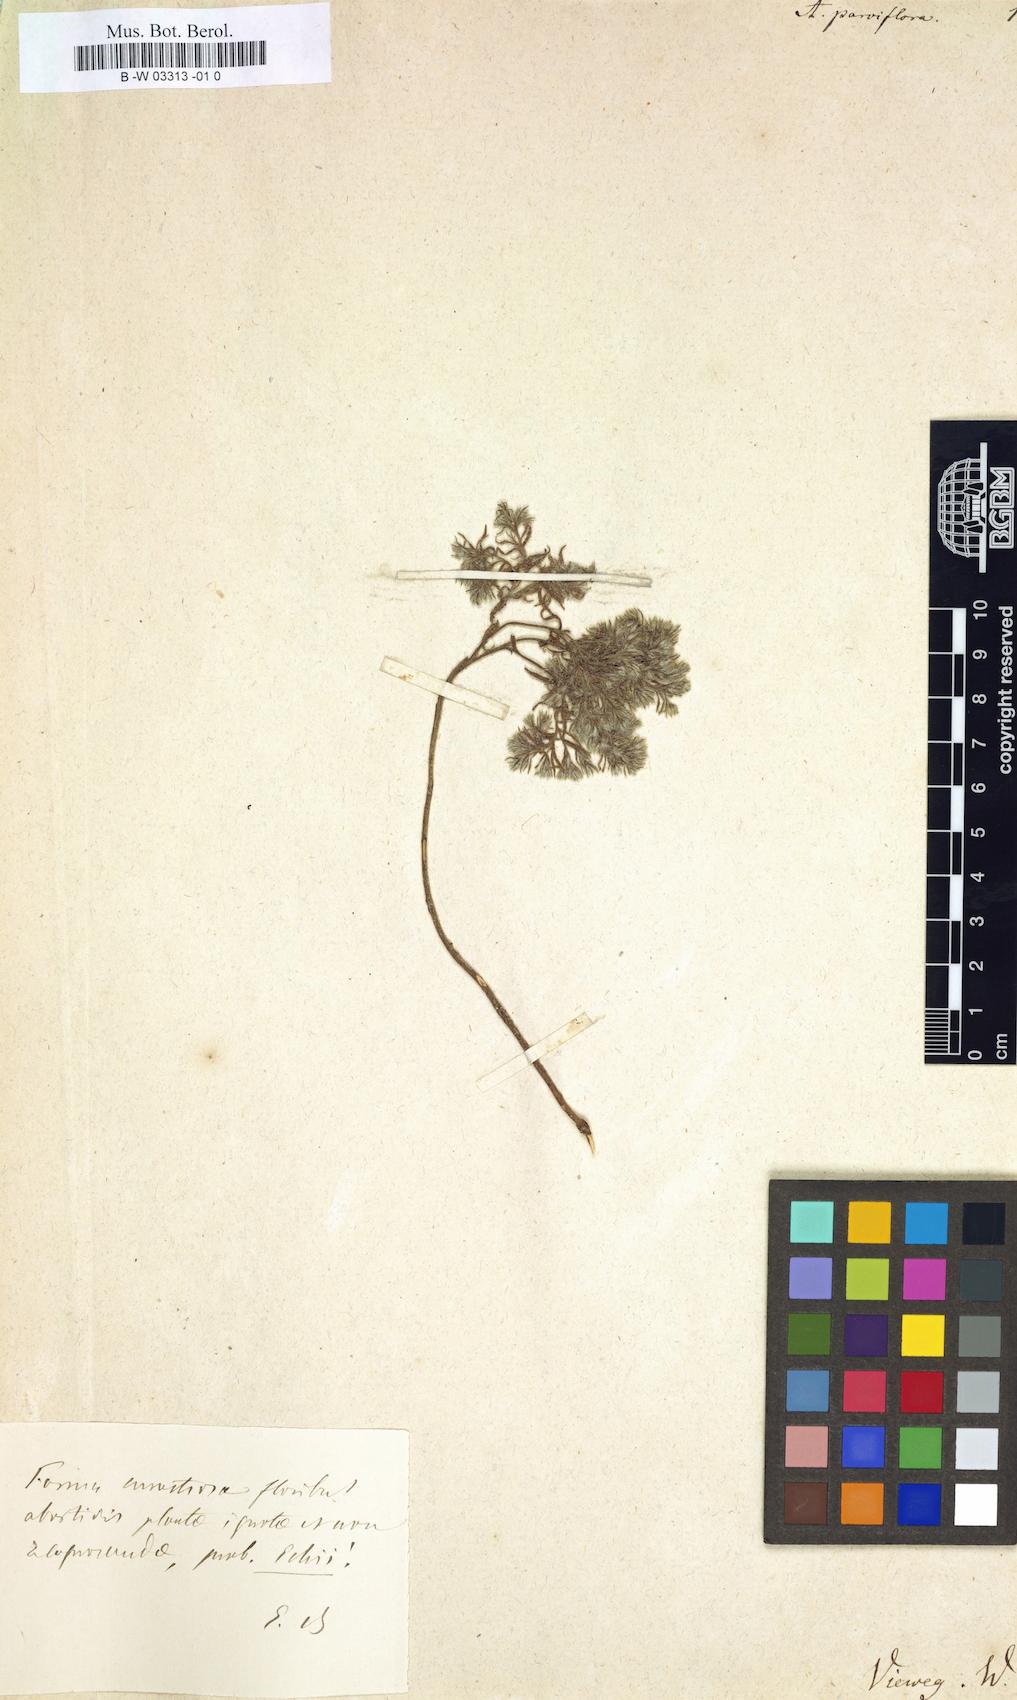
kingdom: Plantae
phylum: Tracheophyta
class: Magnoliopsida
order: Boraginales
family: Boraginaceae
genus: Hormuzakia
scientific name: Hormuzakia aggregata
